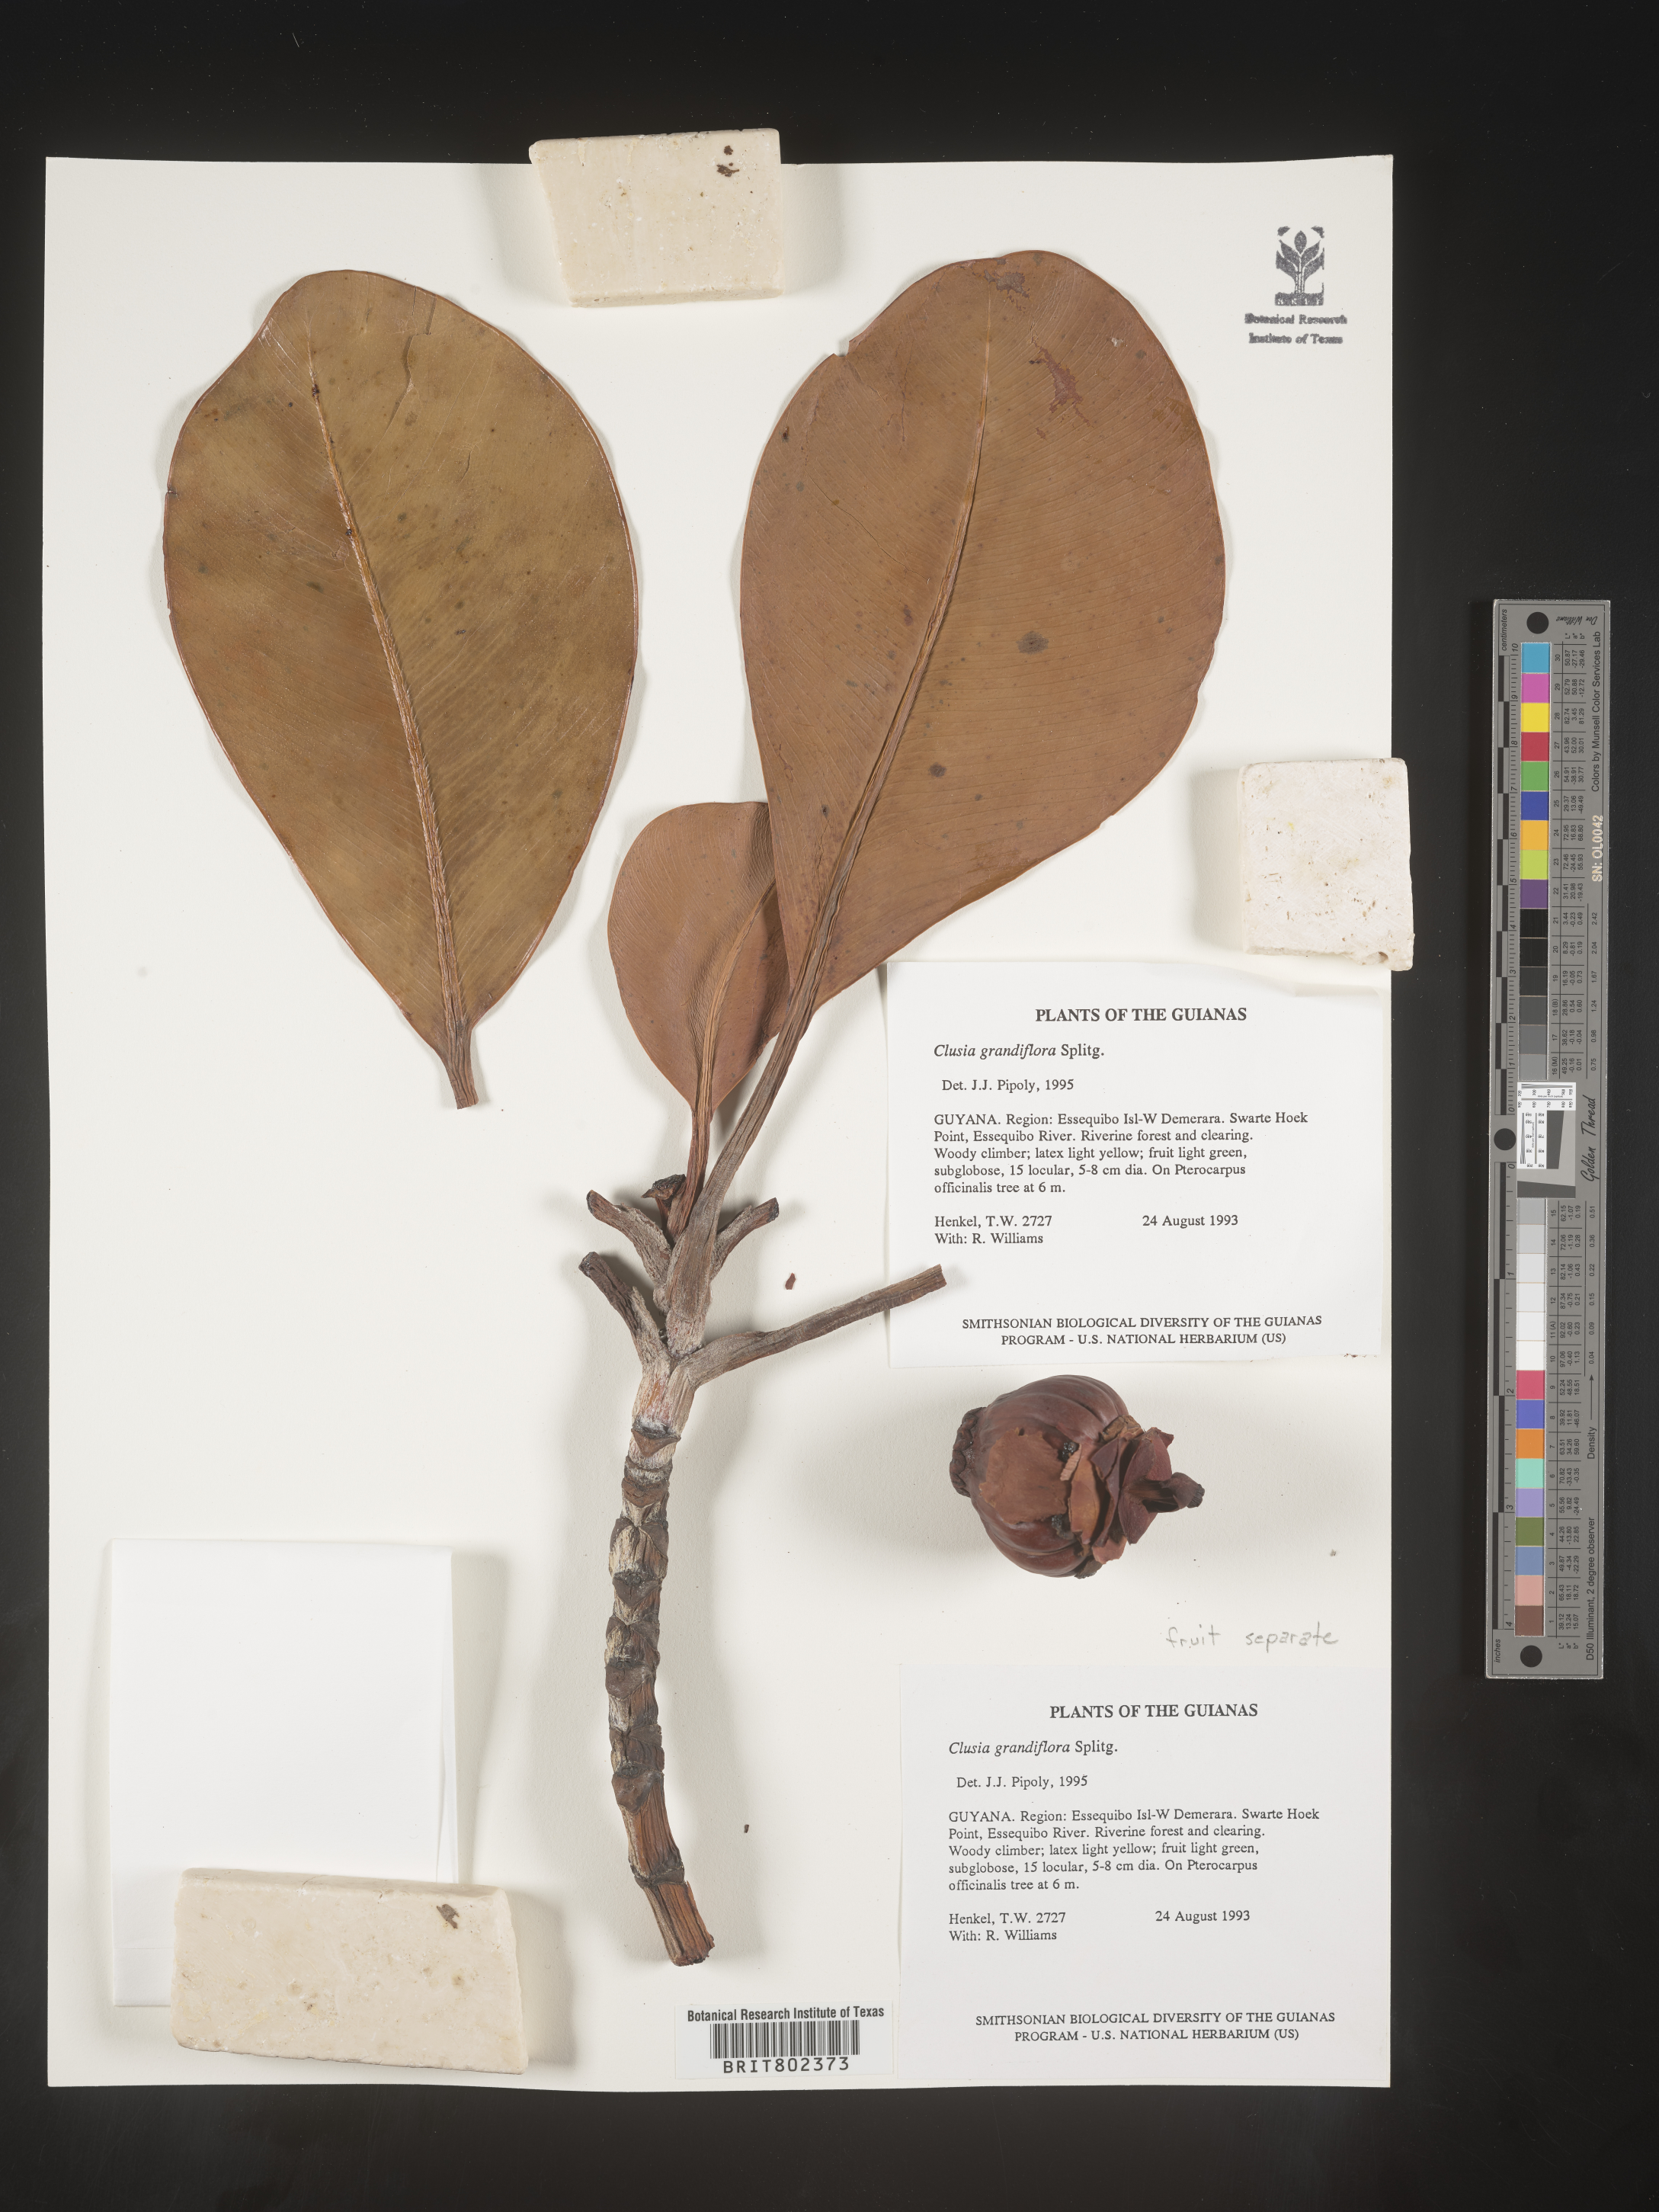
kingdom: Plantae
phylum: Tracheophyta
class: Magnoliopsida
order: Malpighiales
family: Clusiaceae
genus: Clusia
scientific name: Clusia grandiflora
